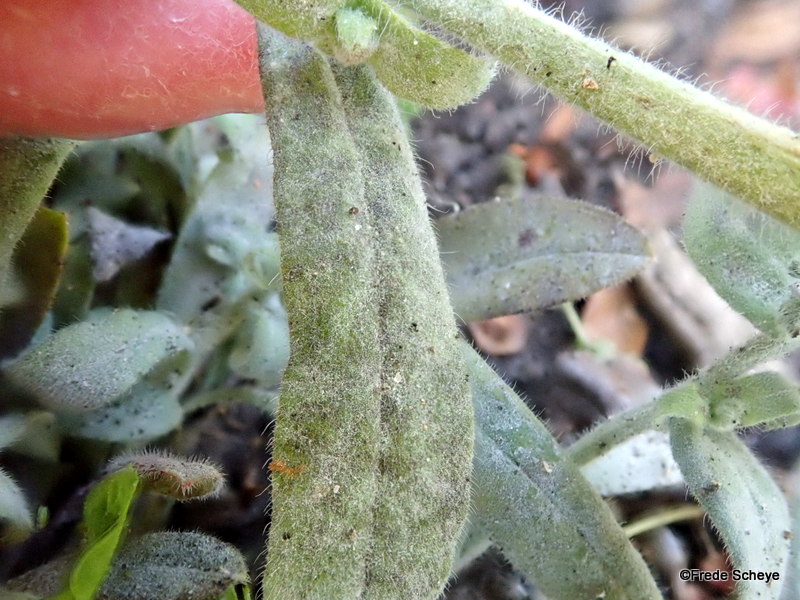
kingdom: Fungi
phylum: Ascomycota
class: Leotiomycetes
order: Helotiales
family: Erysiphaceae
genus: Golovinomyces
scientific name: Golovinomyces asperifolii
